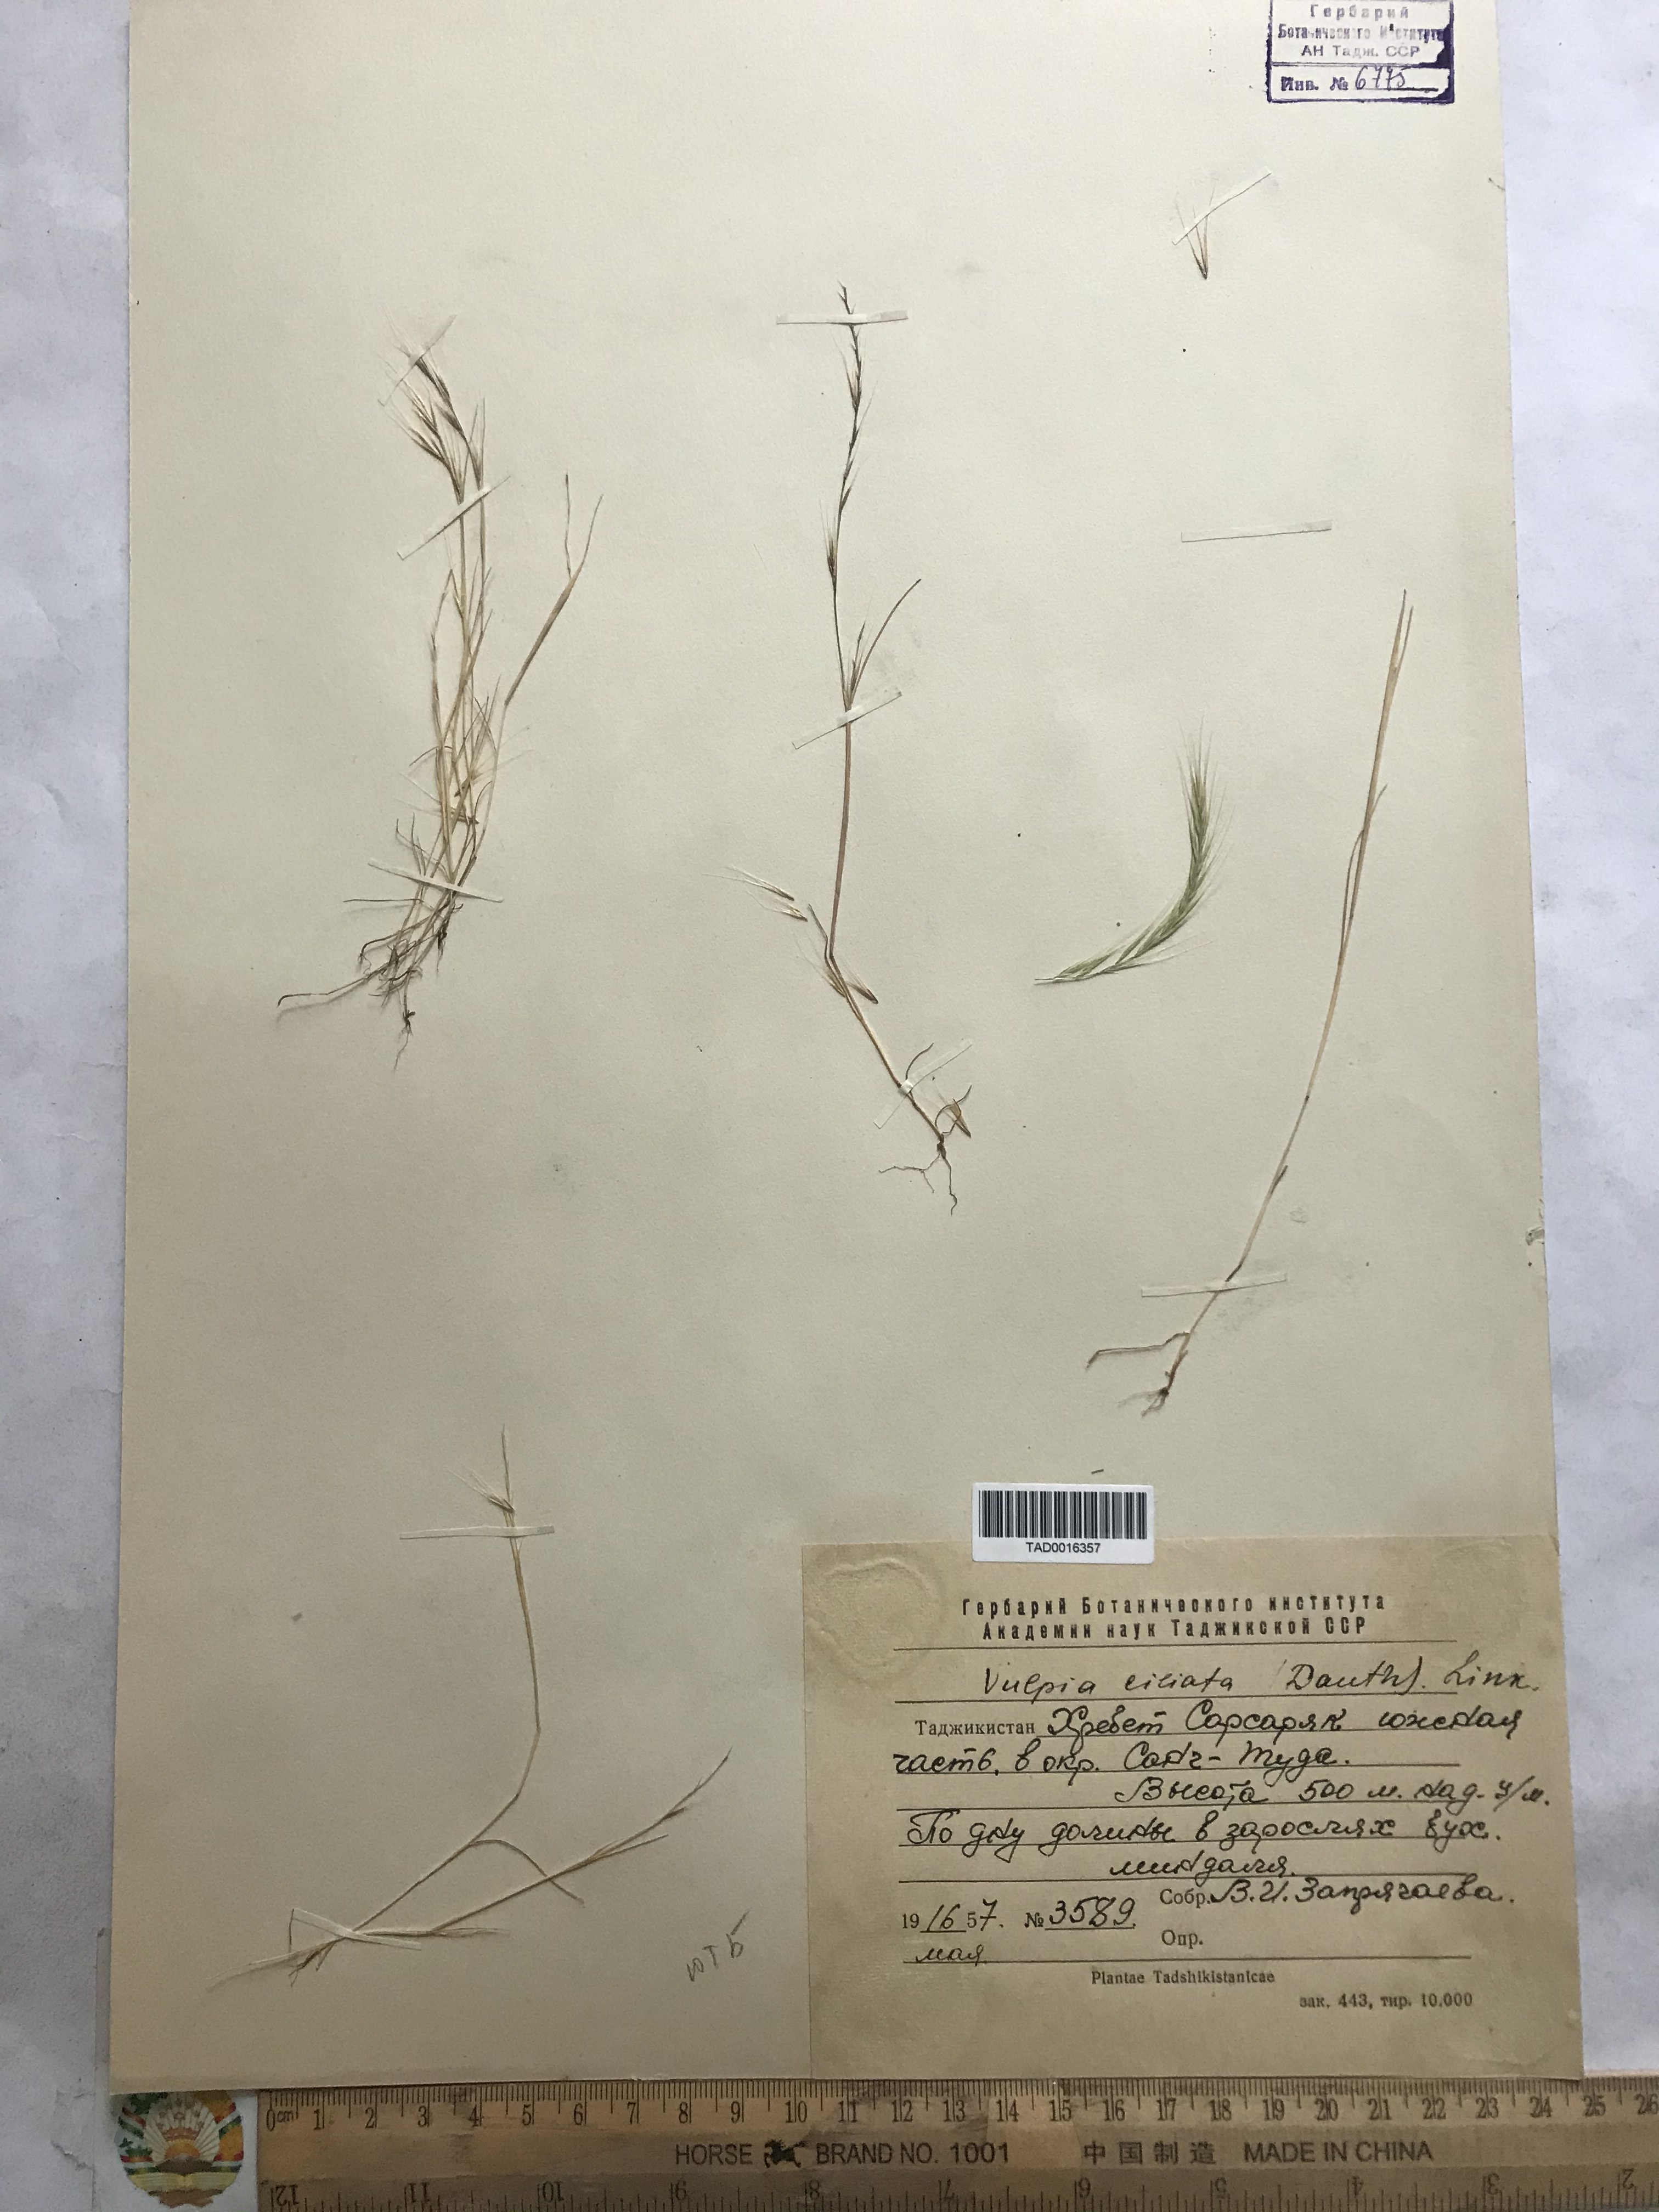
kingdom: Plantae
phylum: Tracheophyta
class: Liliopsida
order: Poales
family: Poaceae
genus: Festuca
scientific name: Festuca ambigua
